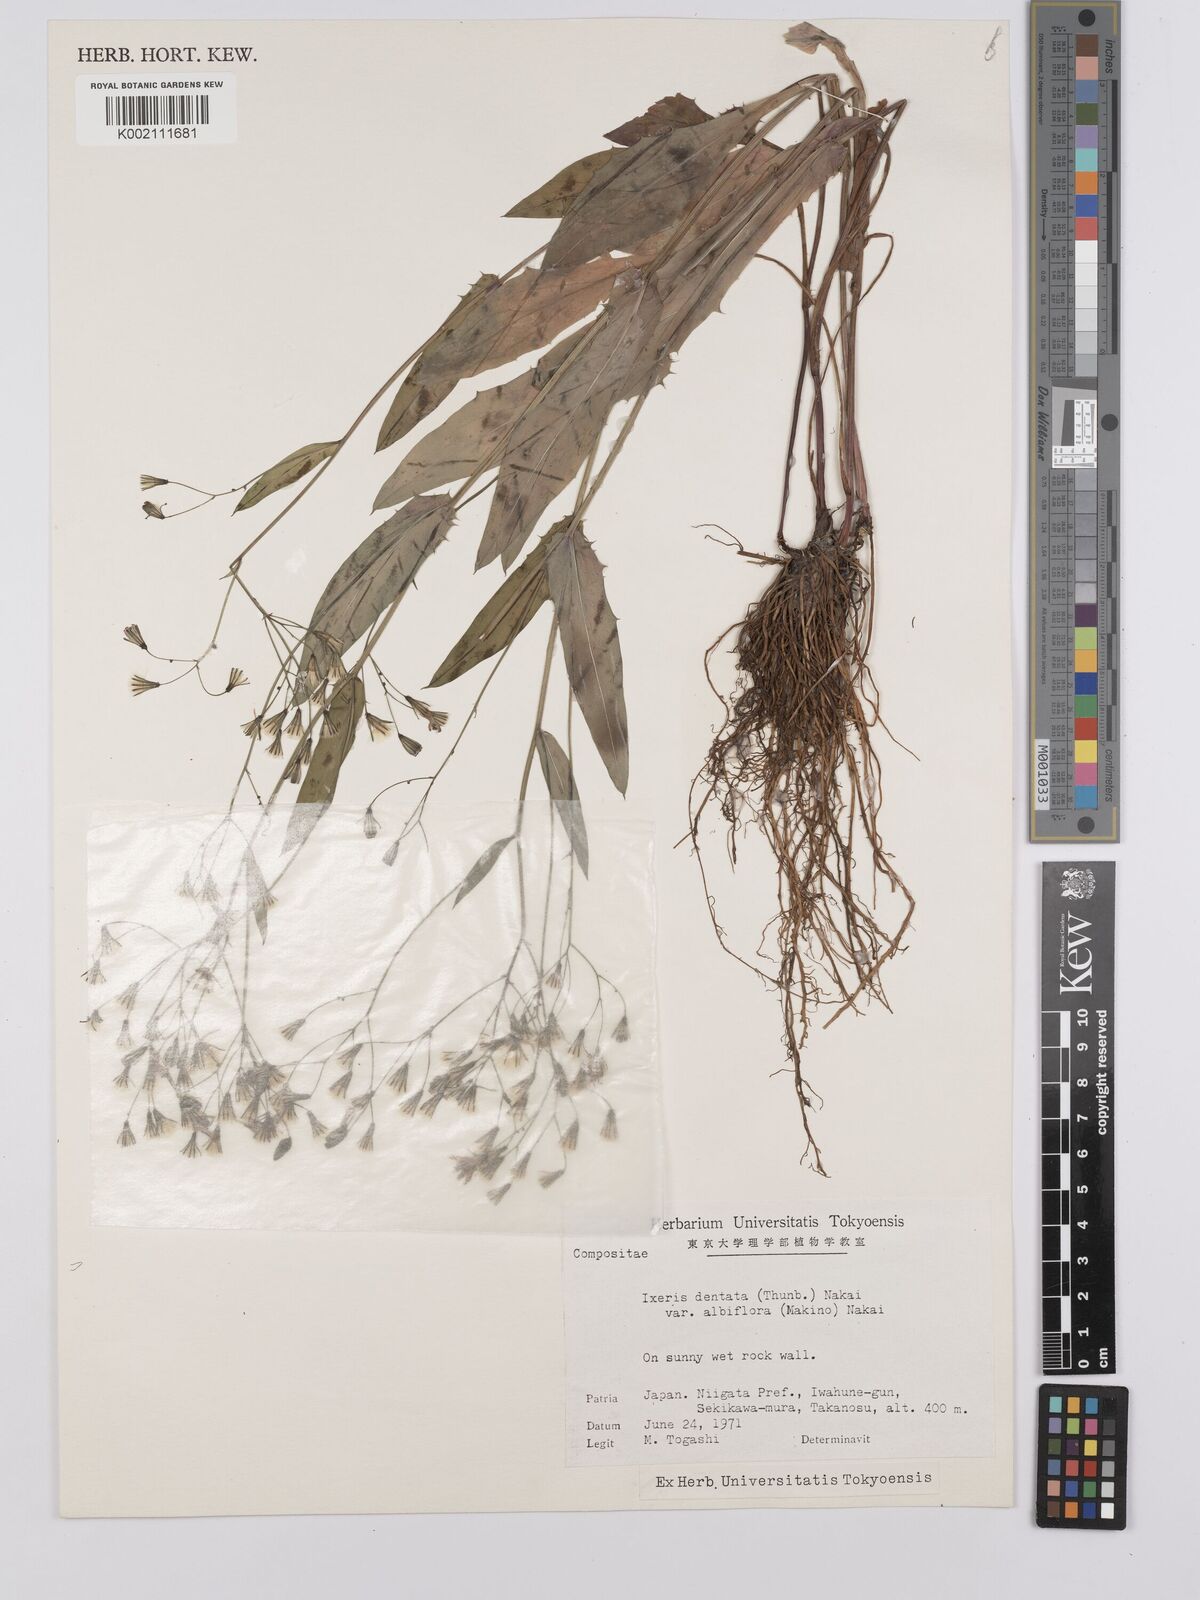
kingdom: Plantae
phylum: Tracheophyta
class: Magnoliopsida
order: Asterales
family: Asteraceae
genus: Ixeridium
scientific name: Ixeridium
